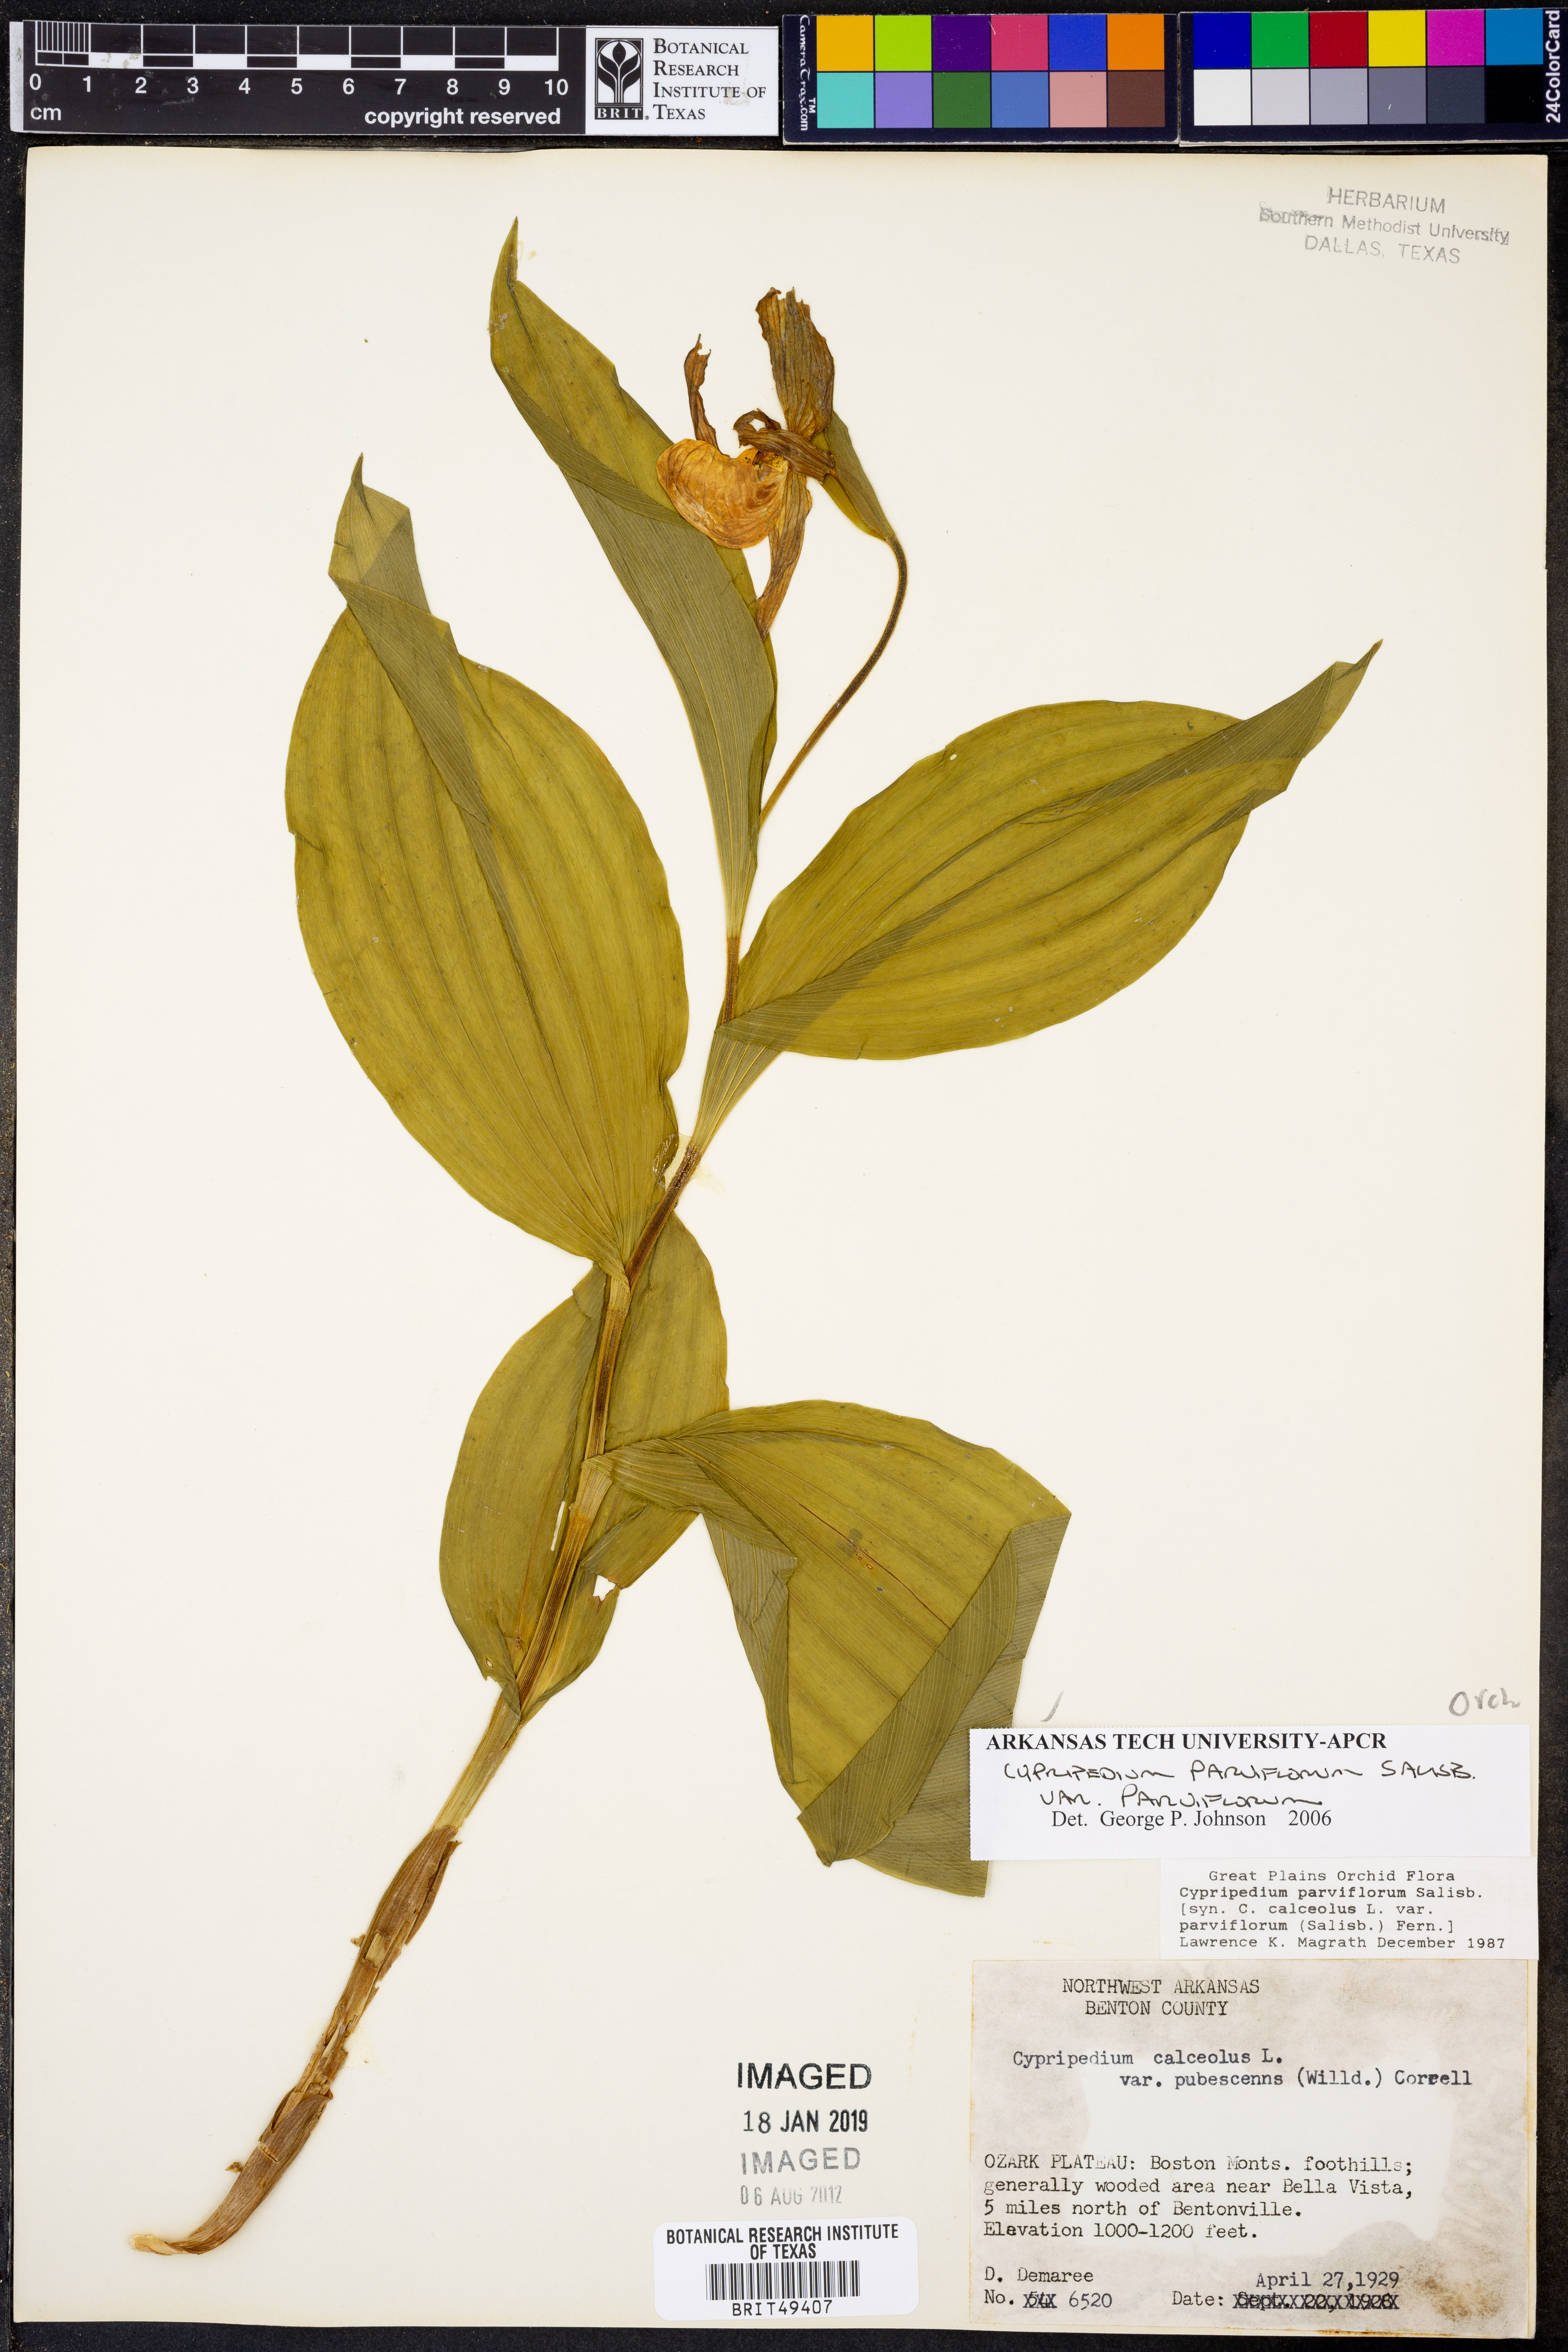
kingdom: Plantae
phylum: Tracheophyta
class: Liliopsida
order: Asparagales
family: Orchidaceae
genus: Cypripedium
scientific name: Cypripedium parviflorum
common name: American yellow lady's-slipper
